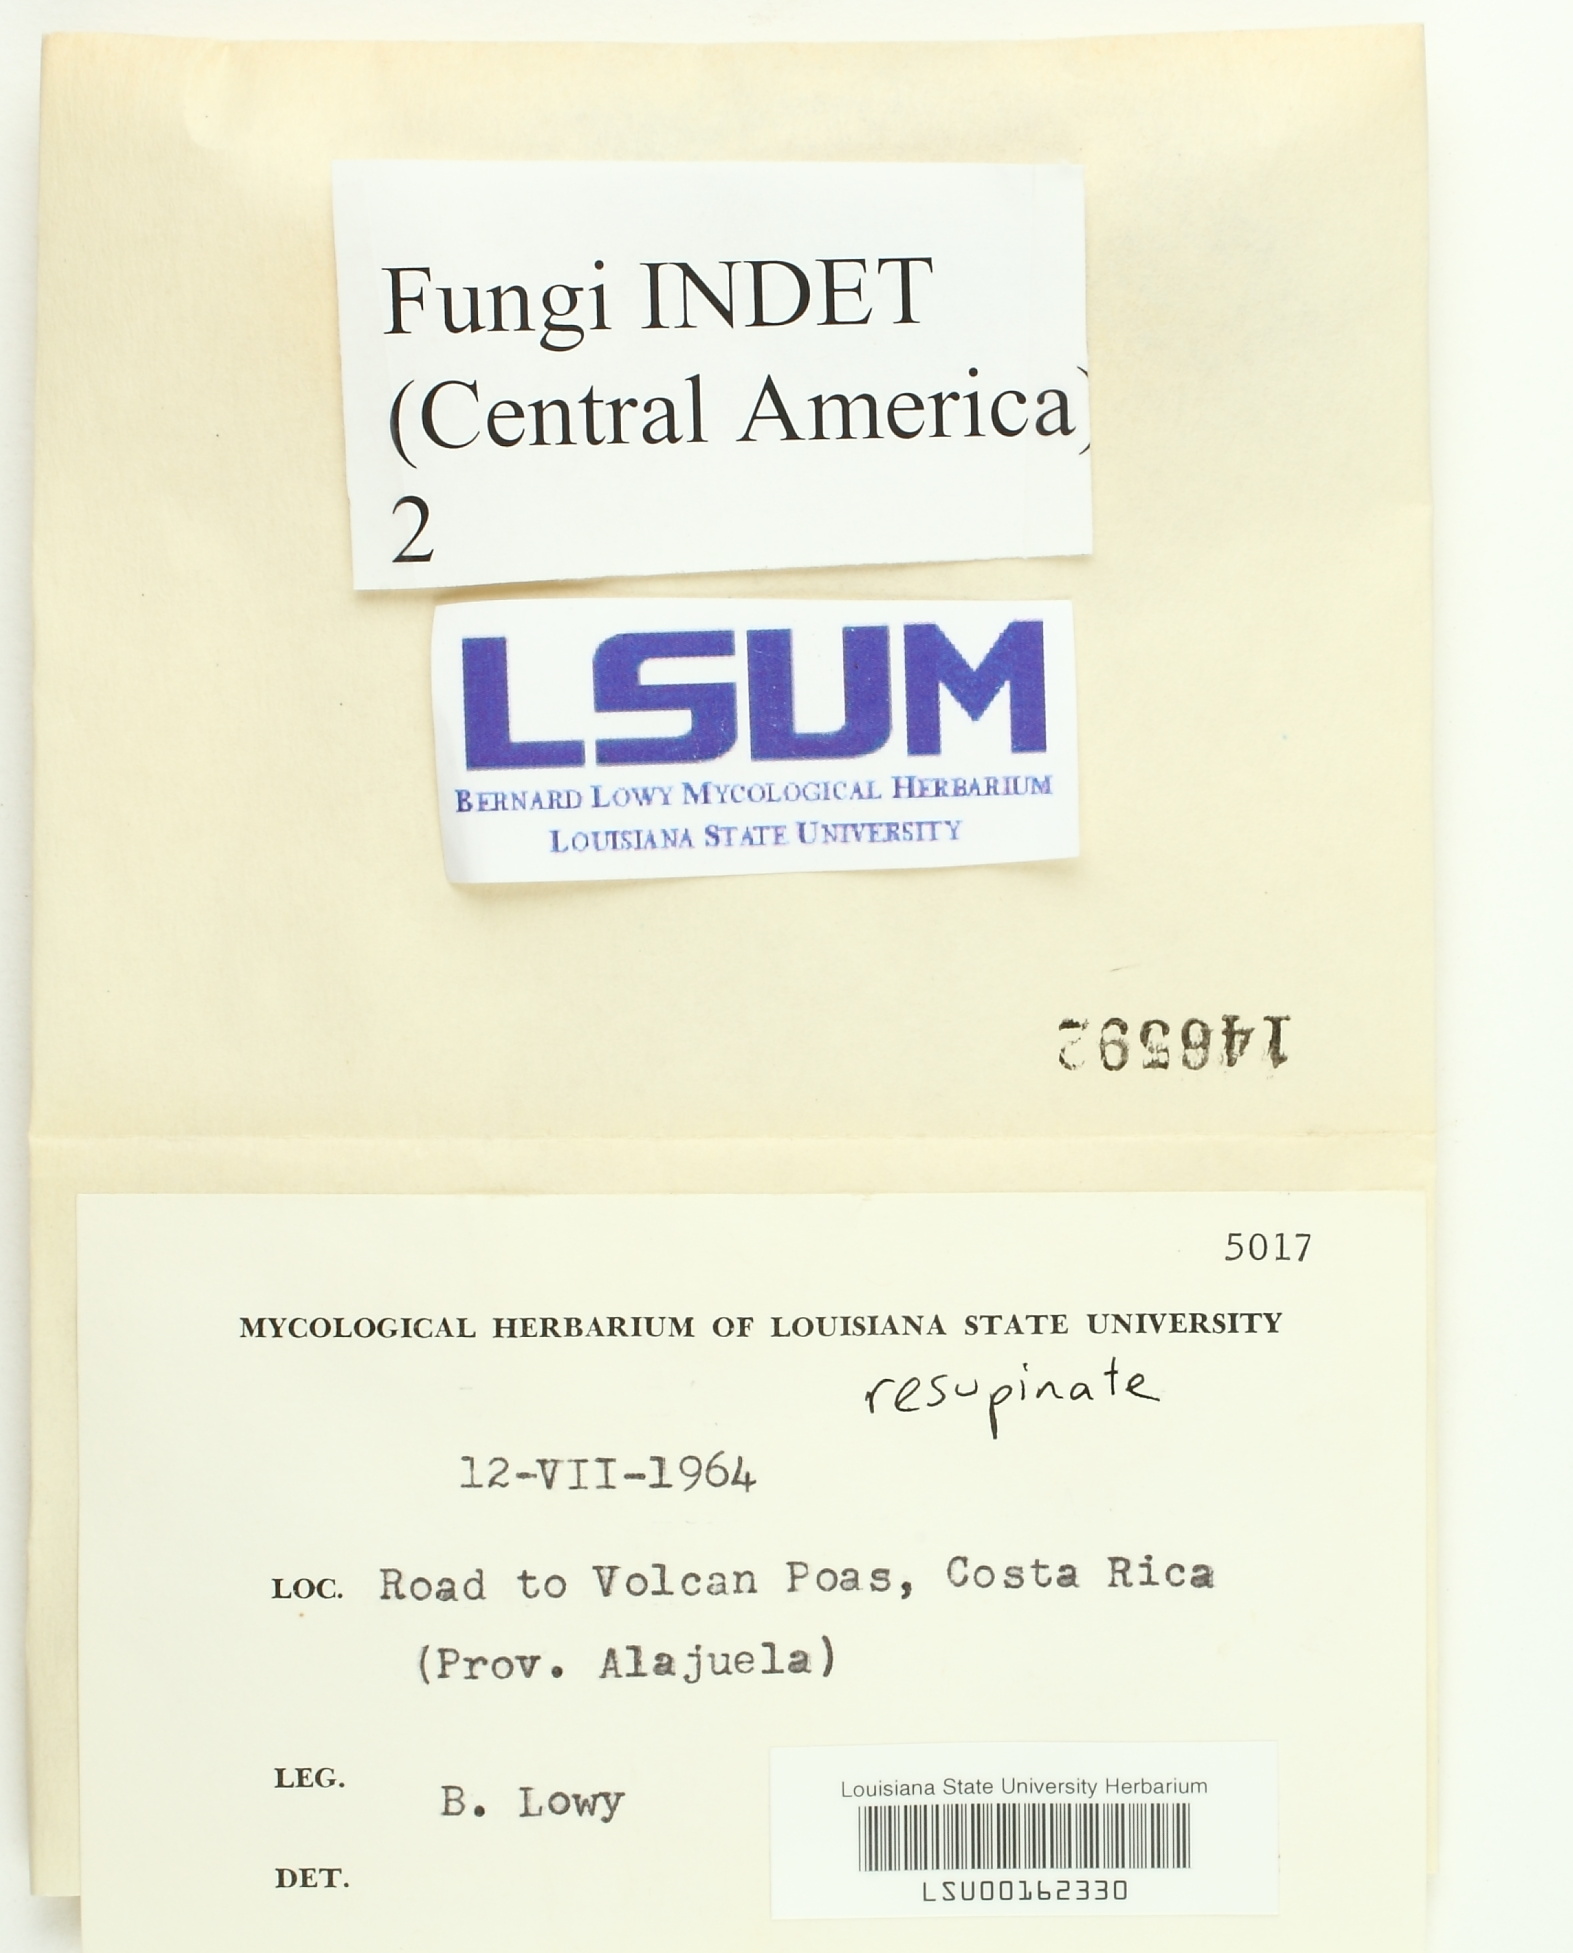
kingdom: Fungi
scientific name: Fungi
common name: Fungi
